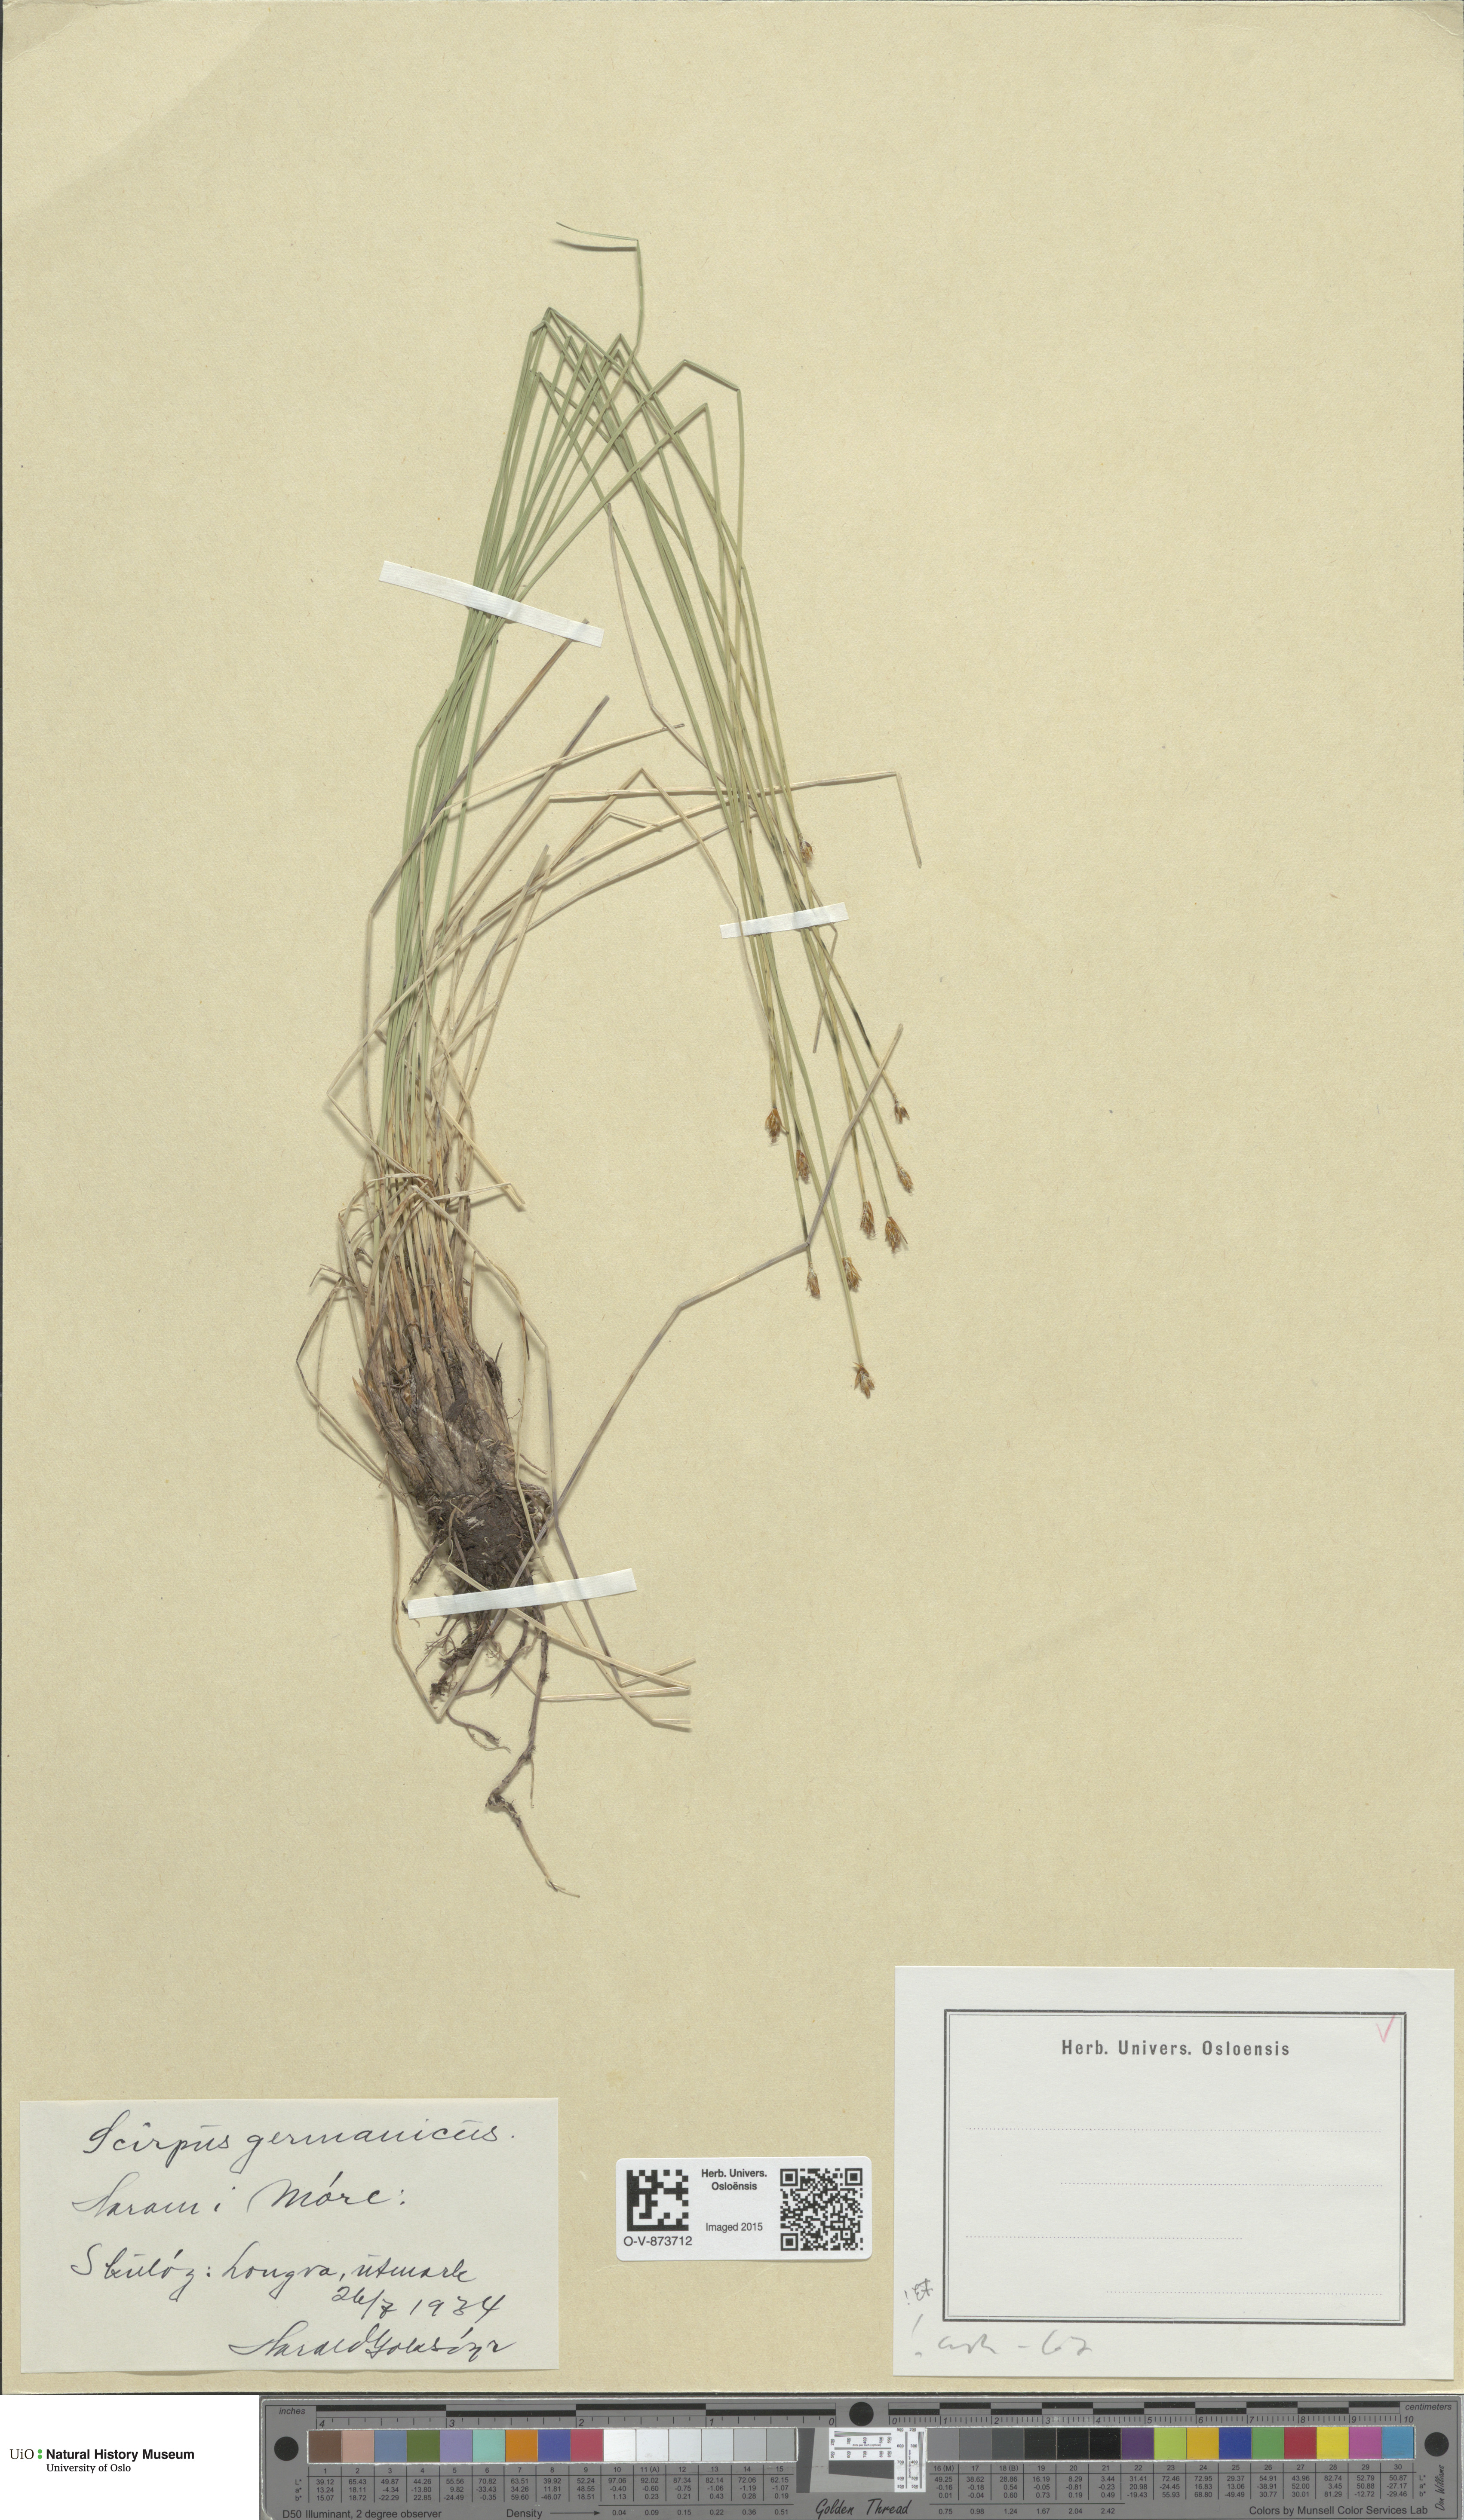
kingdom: Plantae
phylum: Tracheophyta
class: Liliopsida
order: Poales
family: Cyperaceae
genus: Trichophorum
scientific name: Trichophorum cespitosum
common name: Cespitose bulrush
